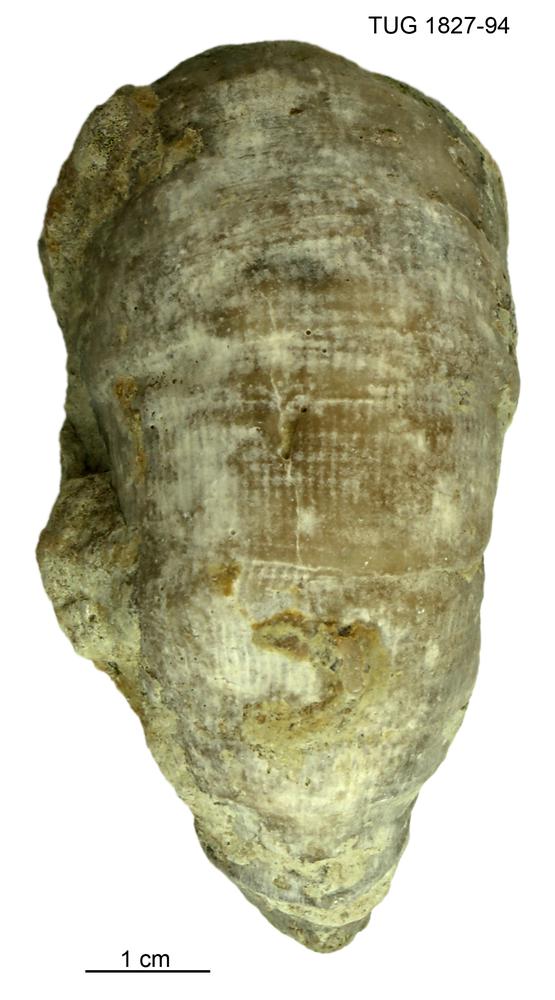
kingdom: Animalia
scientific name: Animalia
